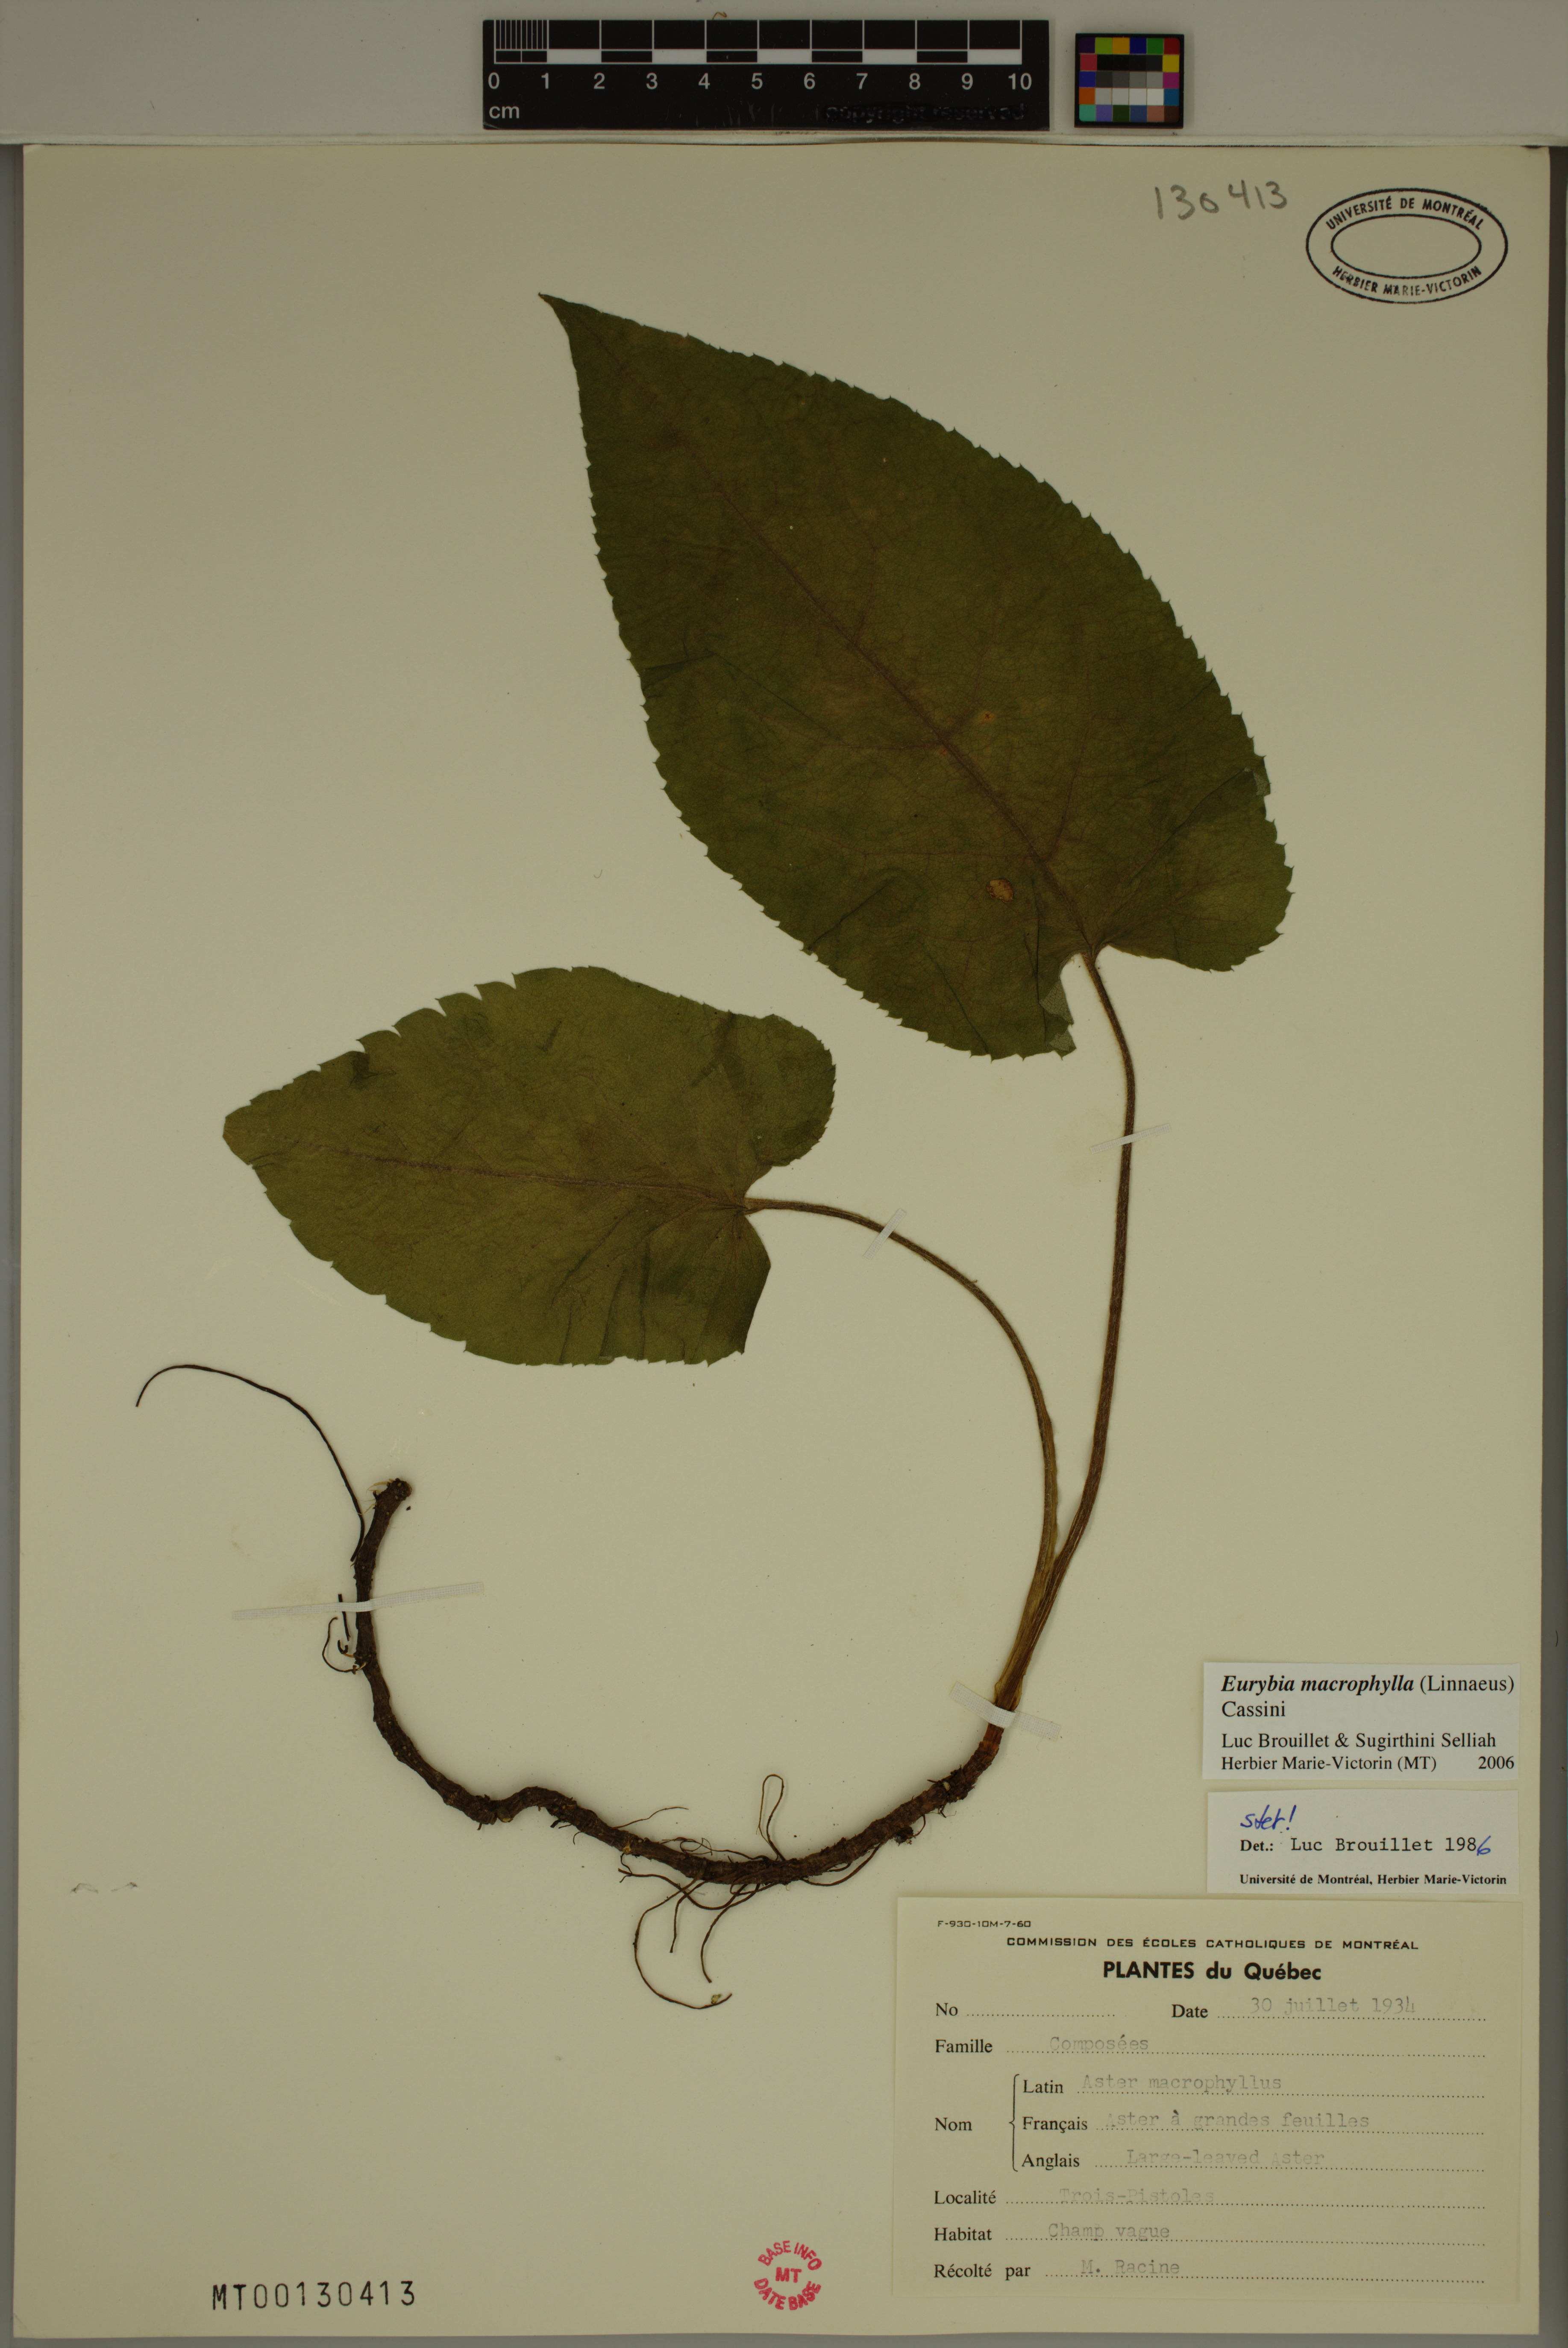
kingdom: Plantae
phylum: Tracheophyta
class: Magnoliopsida
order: Asterales
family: Asteraceae
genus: Eurybia
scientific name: Eurybia macrophylla
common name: Big-leaved aster
